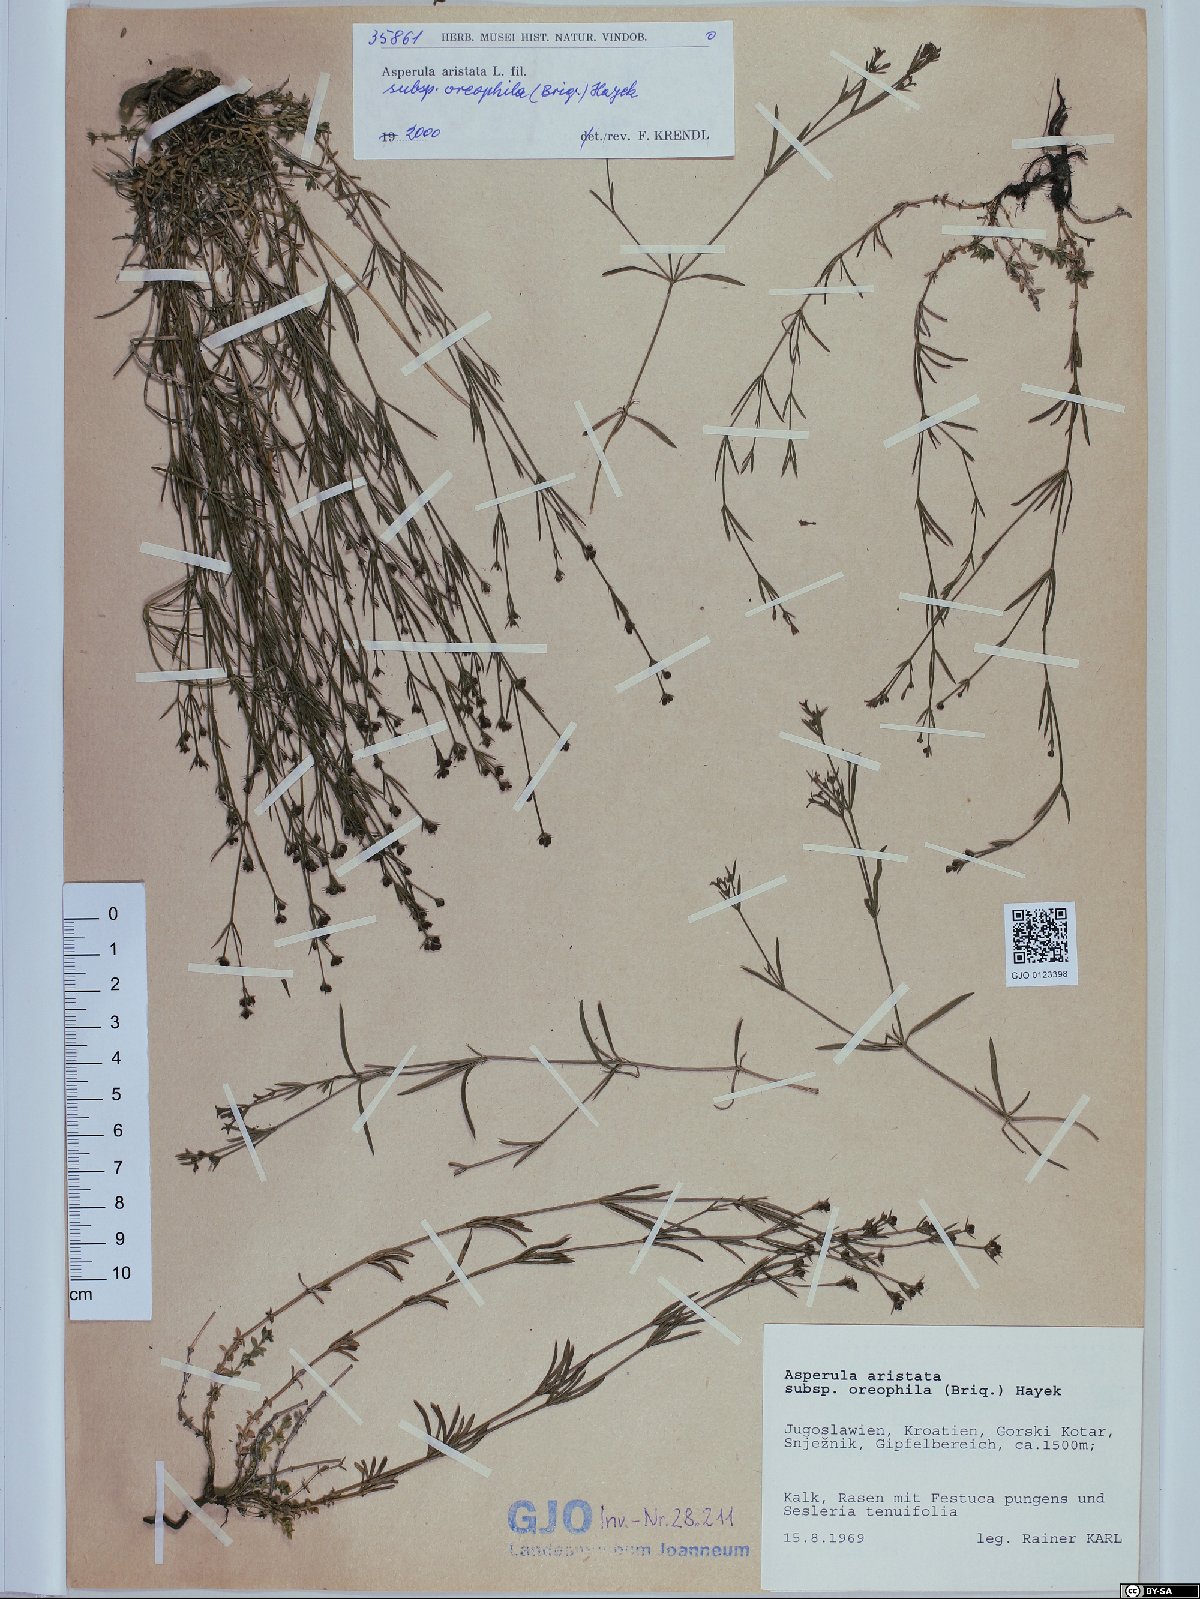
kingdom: Plantae
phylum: Tracheophyta
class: Magnoliopsida
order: Gentianales
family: Rubiaceae
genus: Cynanchica
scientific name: Cynanchica aristata
